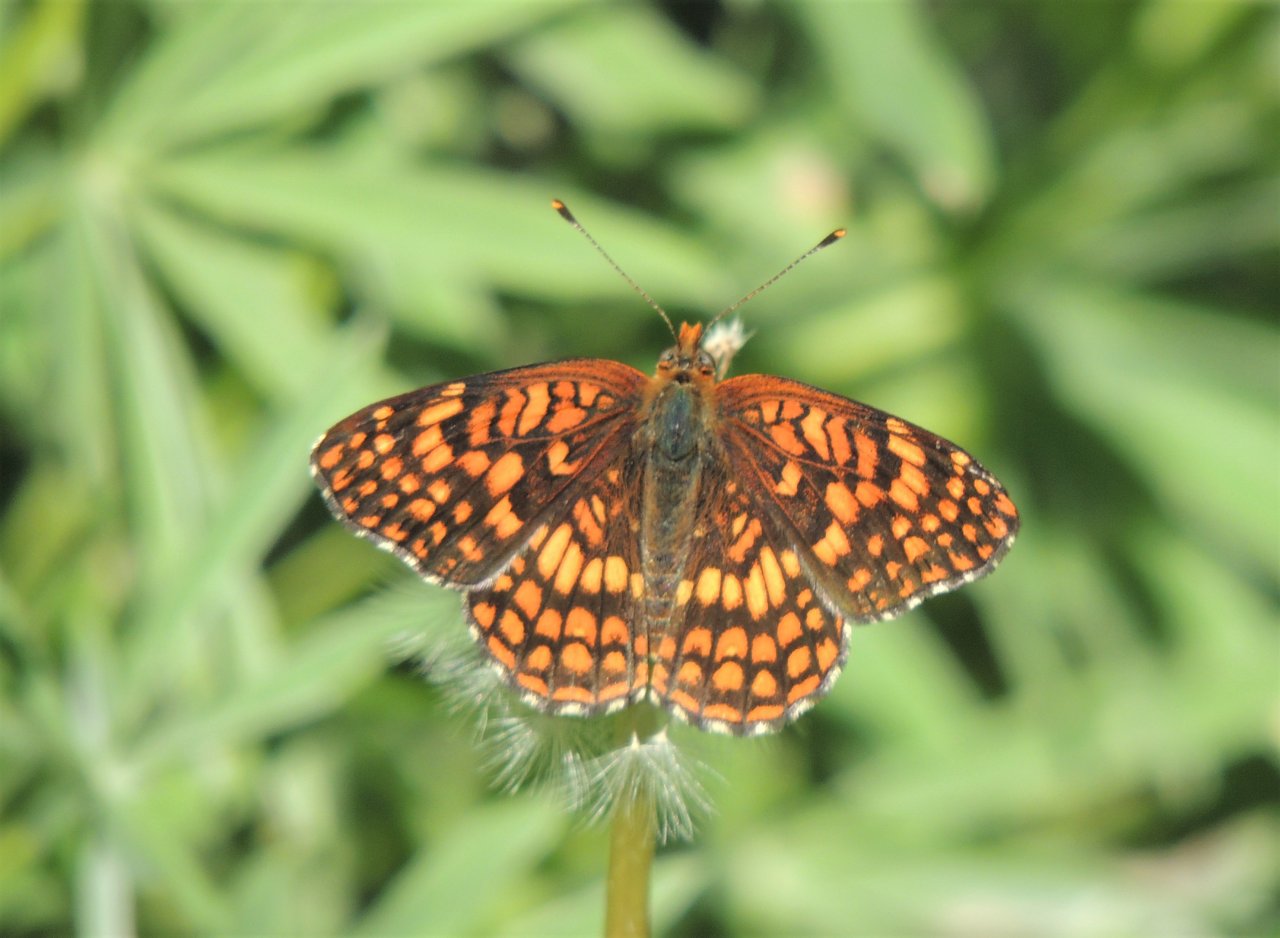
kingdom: Animalia
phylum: Arthropoda
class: Insecta
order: Lepidoptera
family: Nymphalidae
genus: Chlosyne
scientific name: Chlosyne palla
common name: Northern Checkerspot
